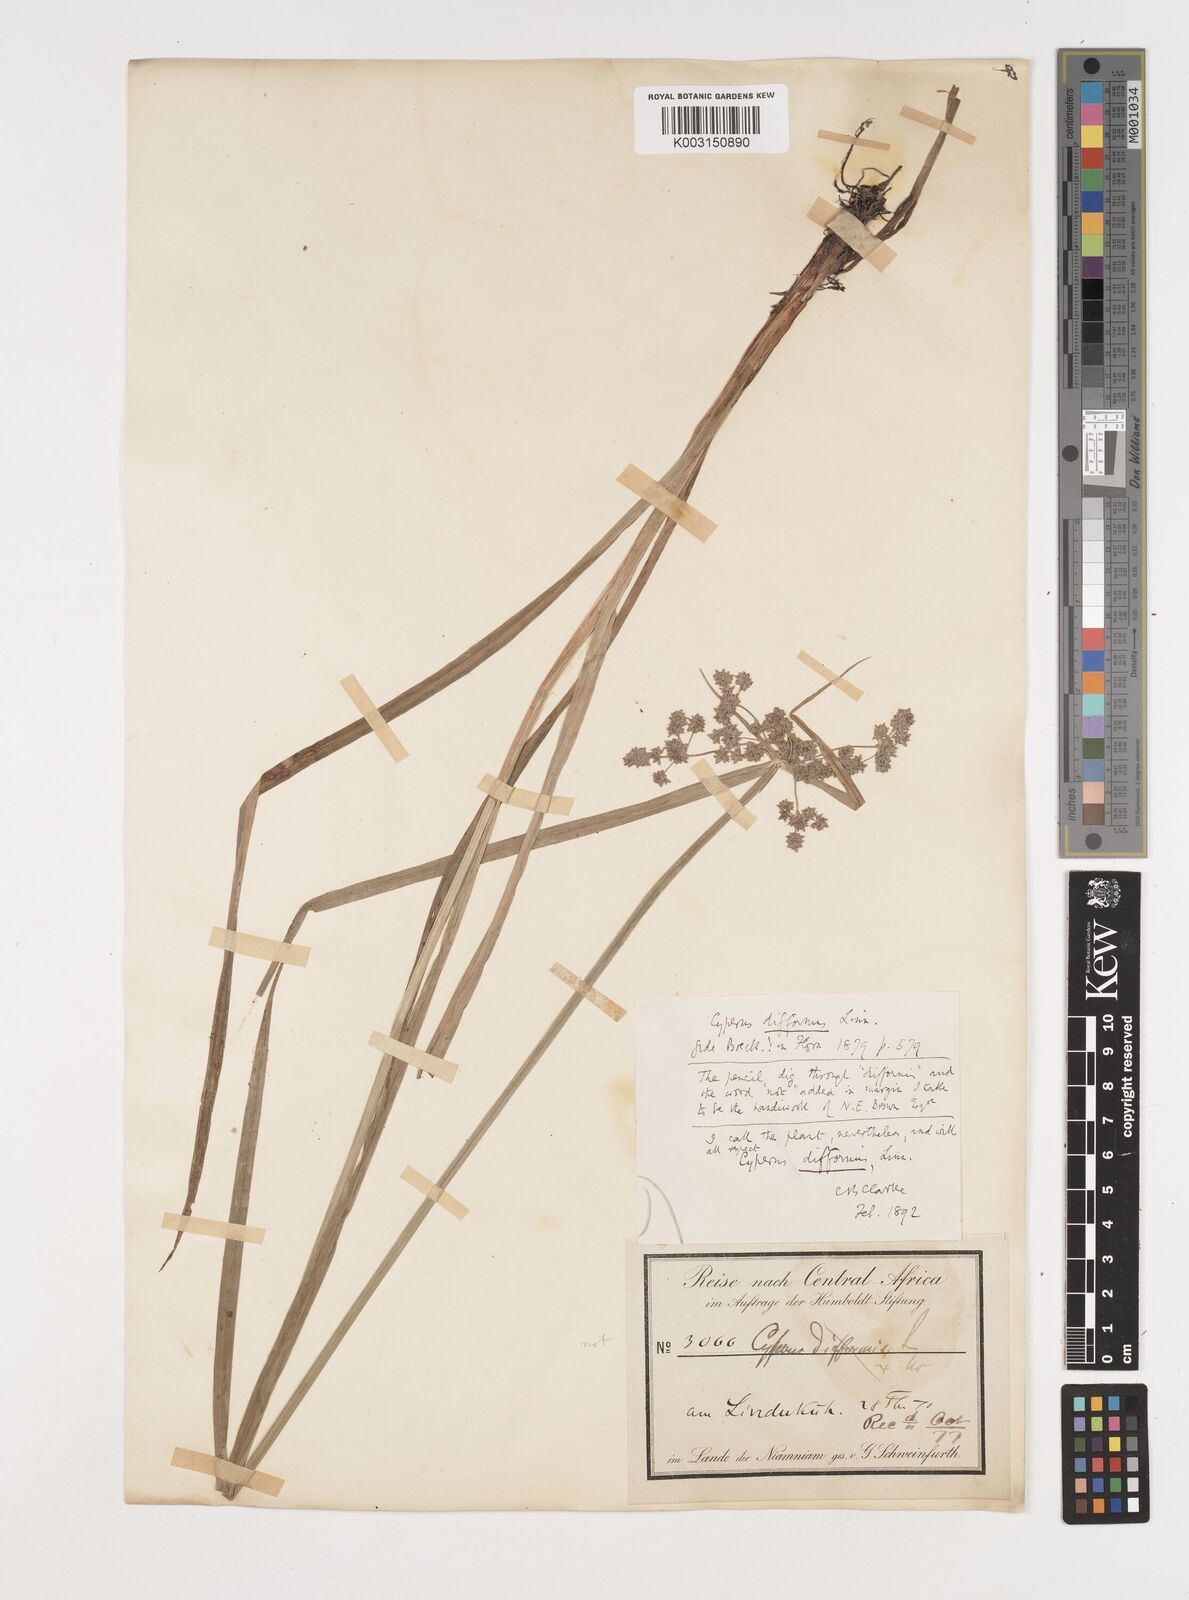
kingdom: Plantae
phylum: Tracheophyta
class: Liliopsida
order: Poales
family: Cyperaceae
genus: Cyperus
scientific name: Cyperus difformis
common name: Variable flatsedge
